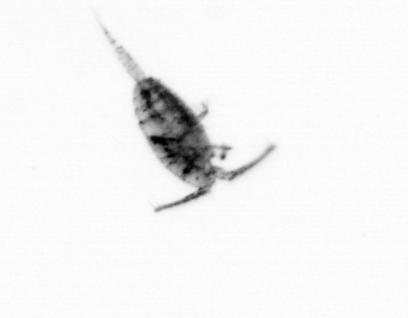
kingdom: Animalia
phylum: Arthropoda
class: Copepoda
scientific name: Copepoda
